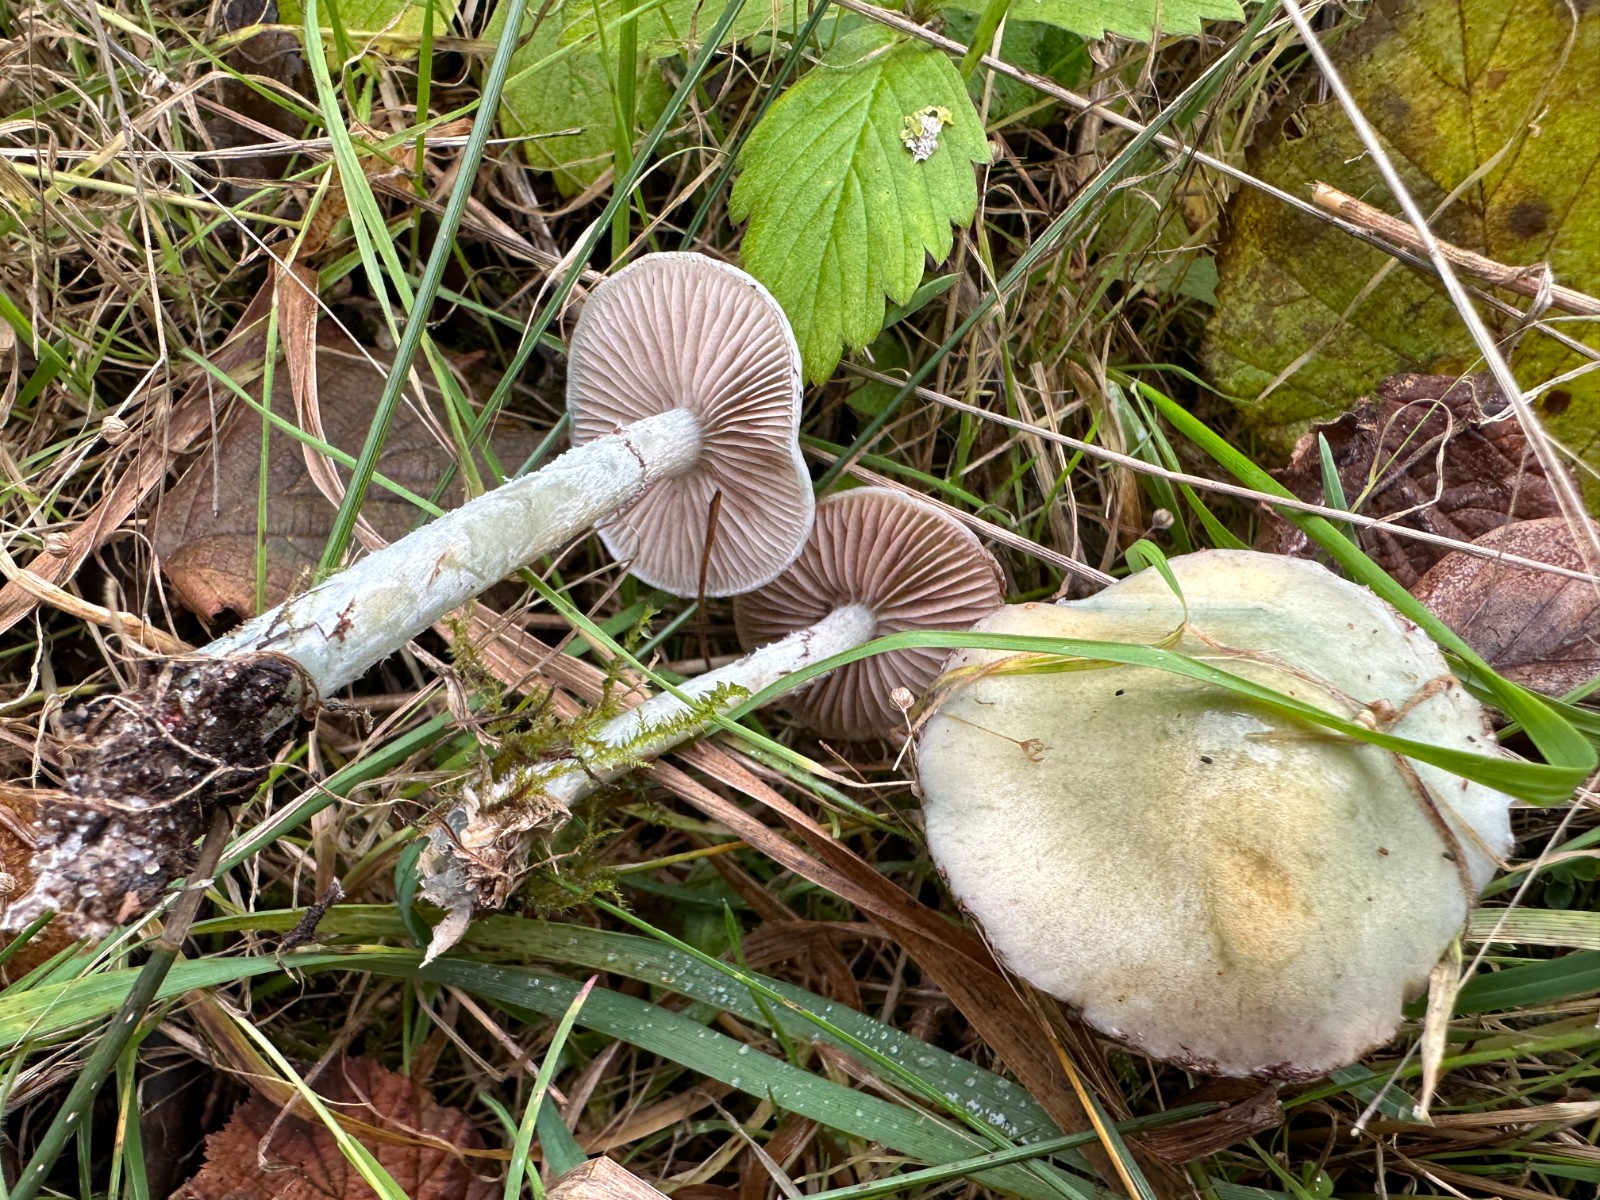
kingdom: Fungi
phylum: Basidiomycota
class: Agaricomycetes
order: Agaricales
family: Strophariaceae
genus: Stropharia
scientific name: Stropharia pseudocyanea
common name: blegblå bredblad
